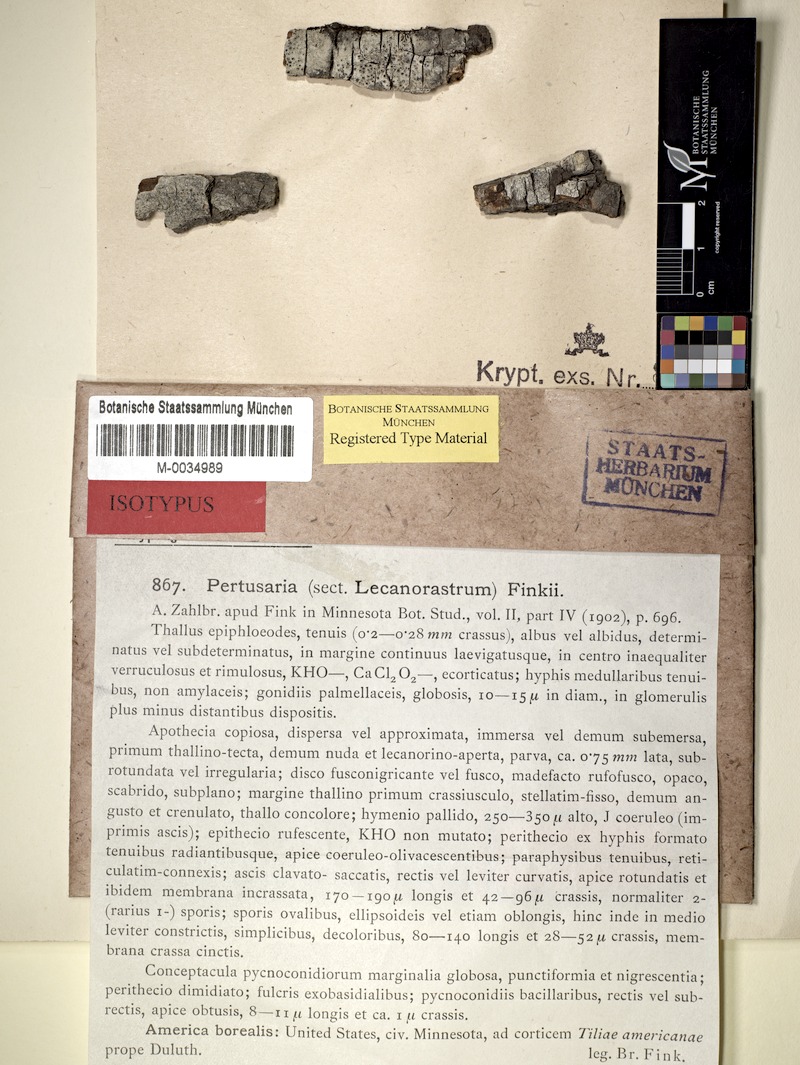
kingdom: Fungi
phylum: Ascomycota
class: Lecanoromycetes
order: Pertusariales
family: Pertusariaceae
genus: Pertusaria
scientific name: Pertusaria rhexostoma
